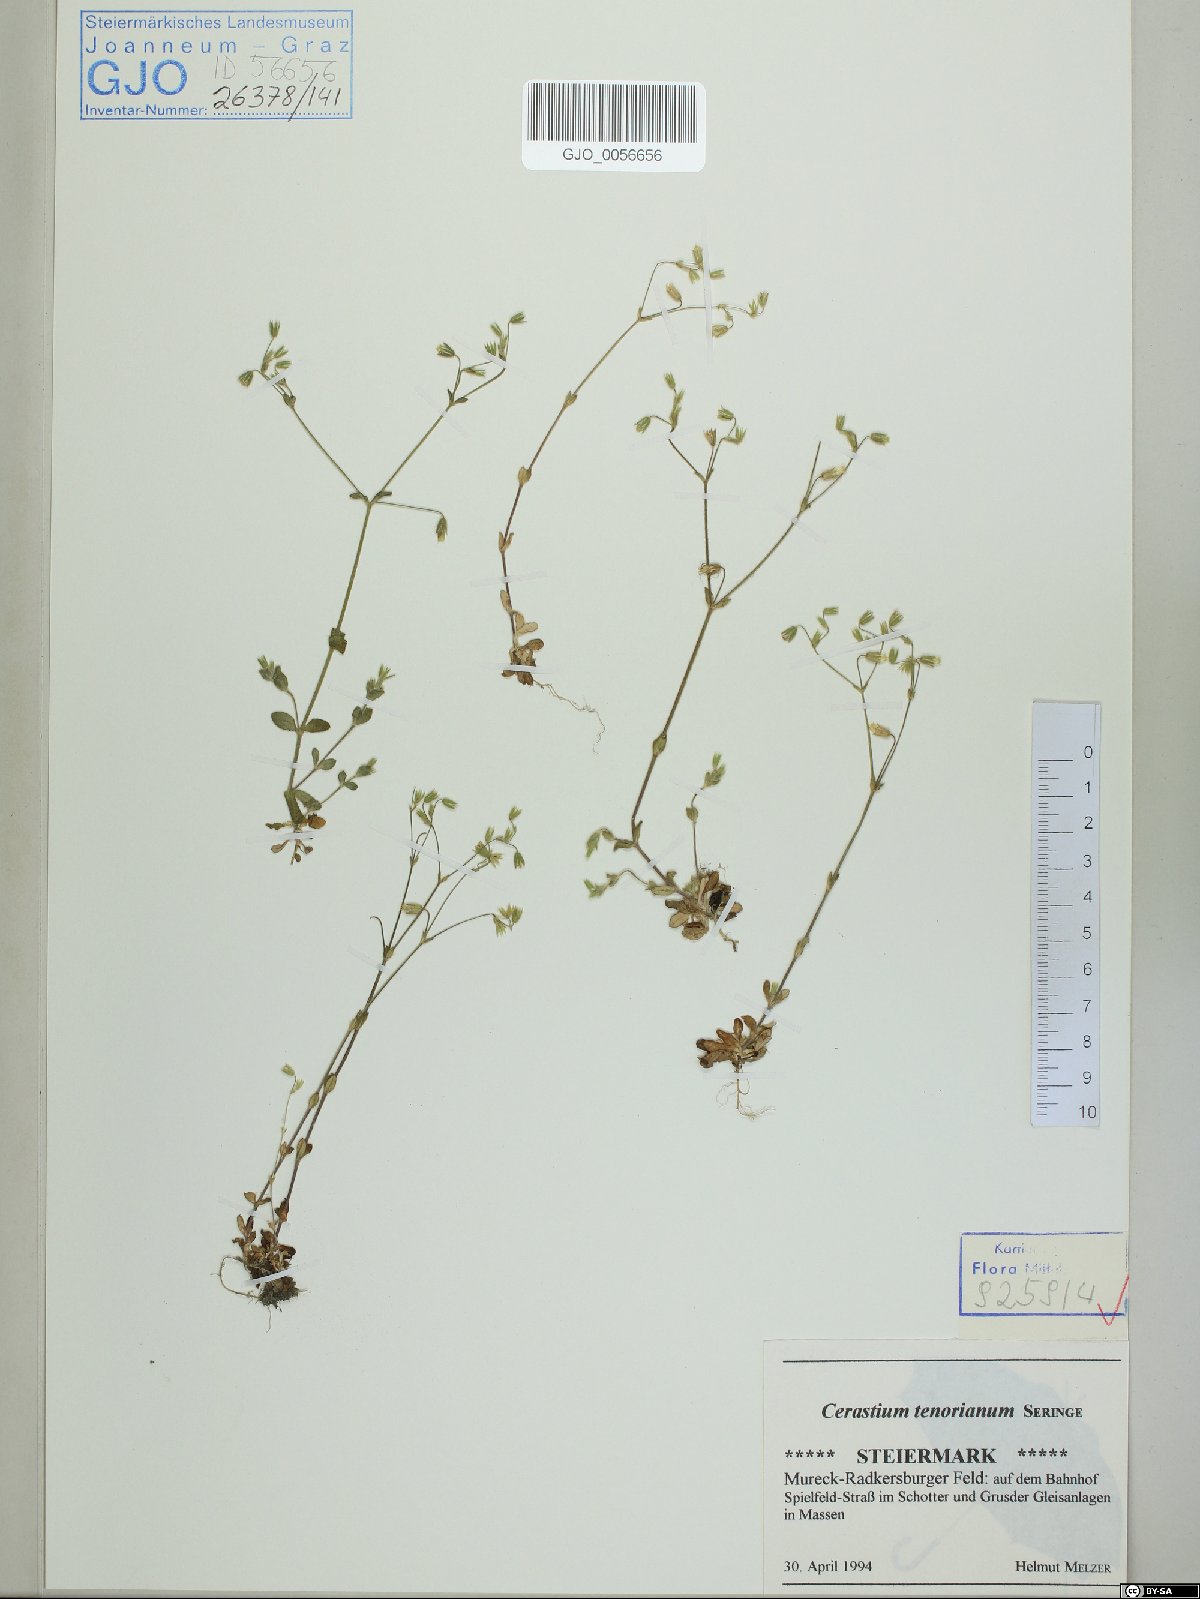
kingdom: Plantae
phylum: Tracheophyta
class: Magnoliopsida
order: Caryophyllales
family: Caryophyllaceae
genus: Cerastium
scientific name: Cerastium tenoreanum
